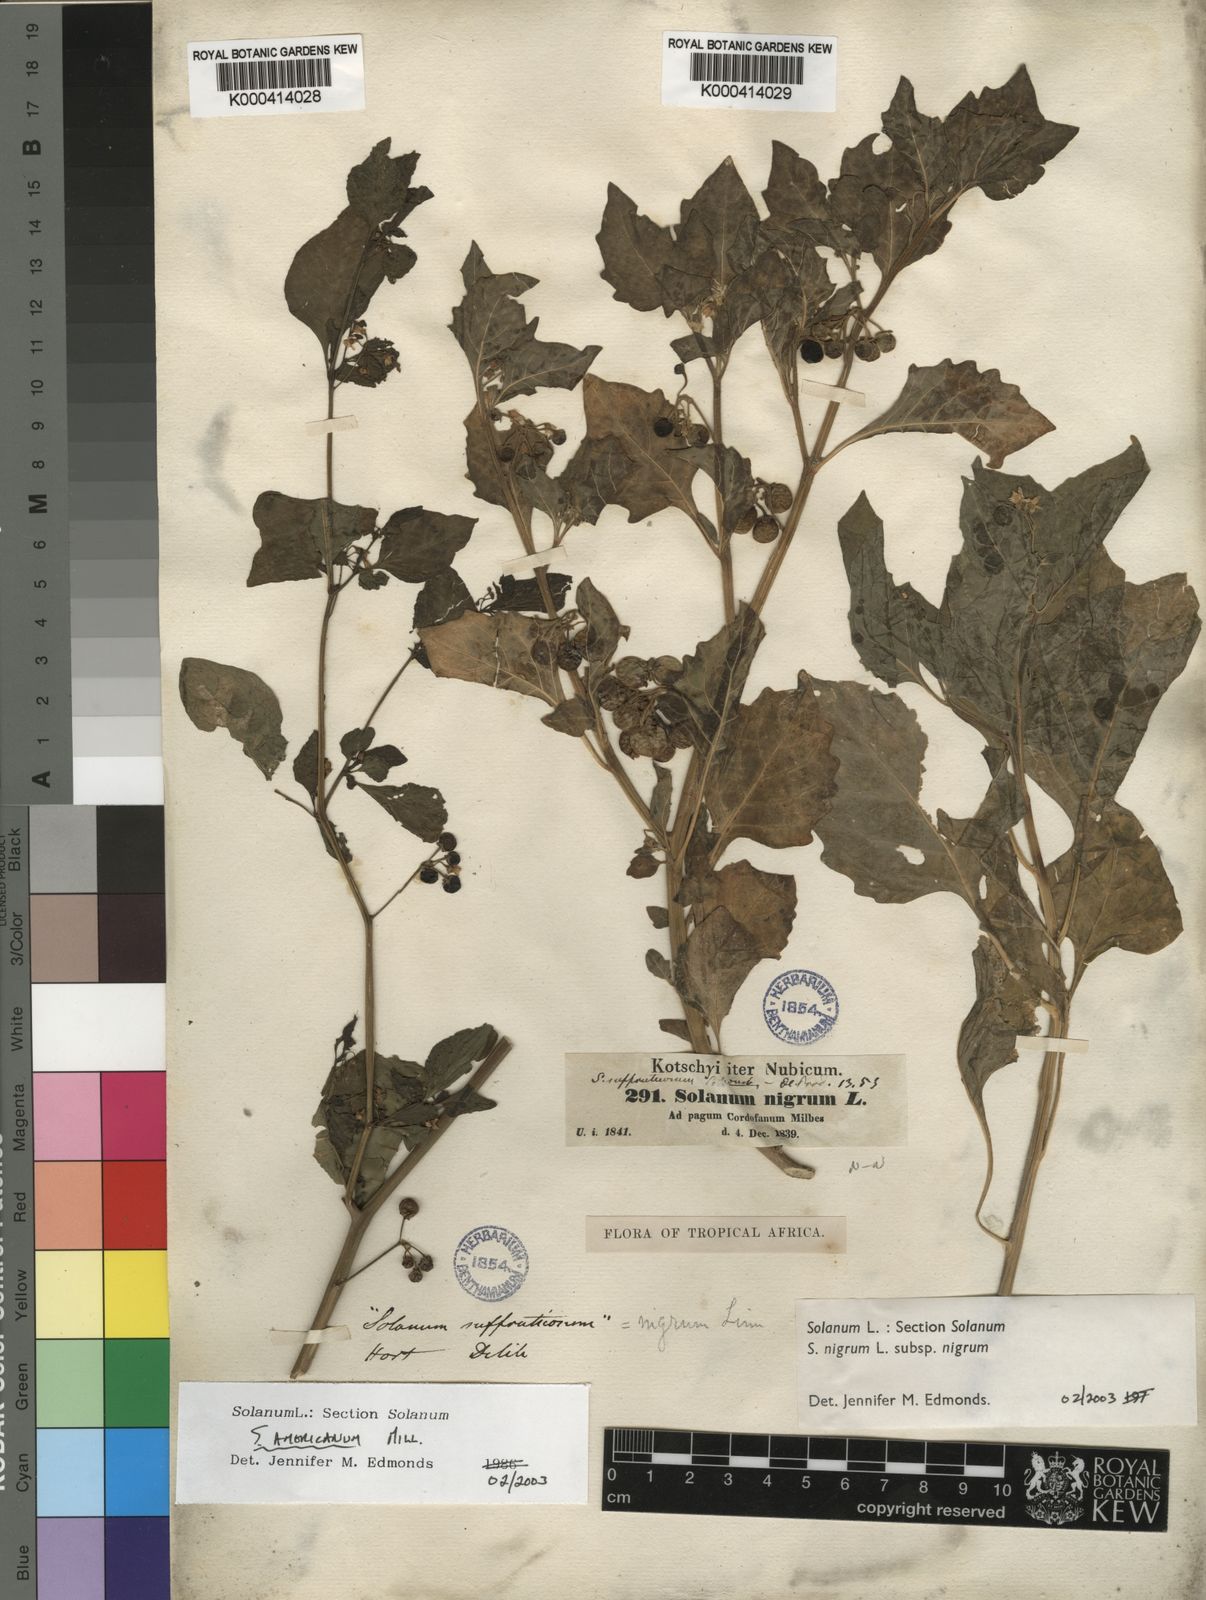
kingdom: Plantae
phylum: Tracheophyta
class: Magnoliopsida
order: Solanales
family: Solanaceae
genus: Solanum
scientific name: Solanum nigrum
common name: Black nightshade
